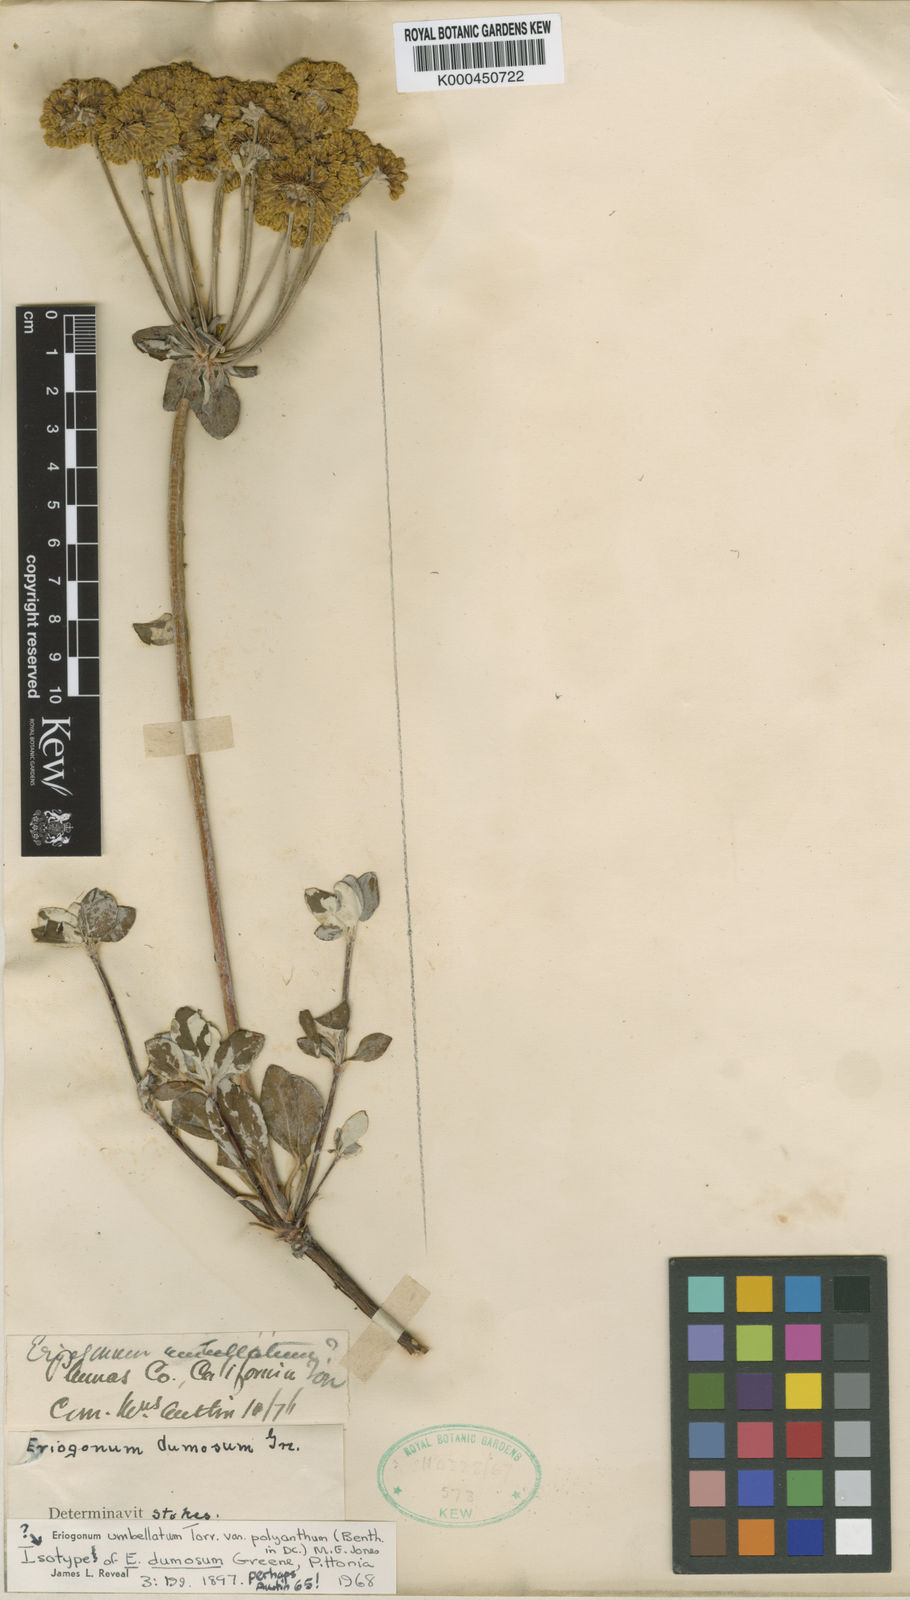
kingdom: Plantae
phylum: Tracheophyta
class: Magnoliopsida
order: Caryophyllales
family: Polygonaceae
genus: Eriogonum
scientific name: Eriogonum umbellatum
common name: Sulfur-buckwheat
